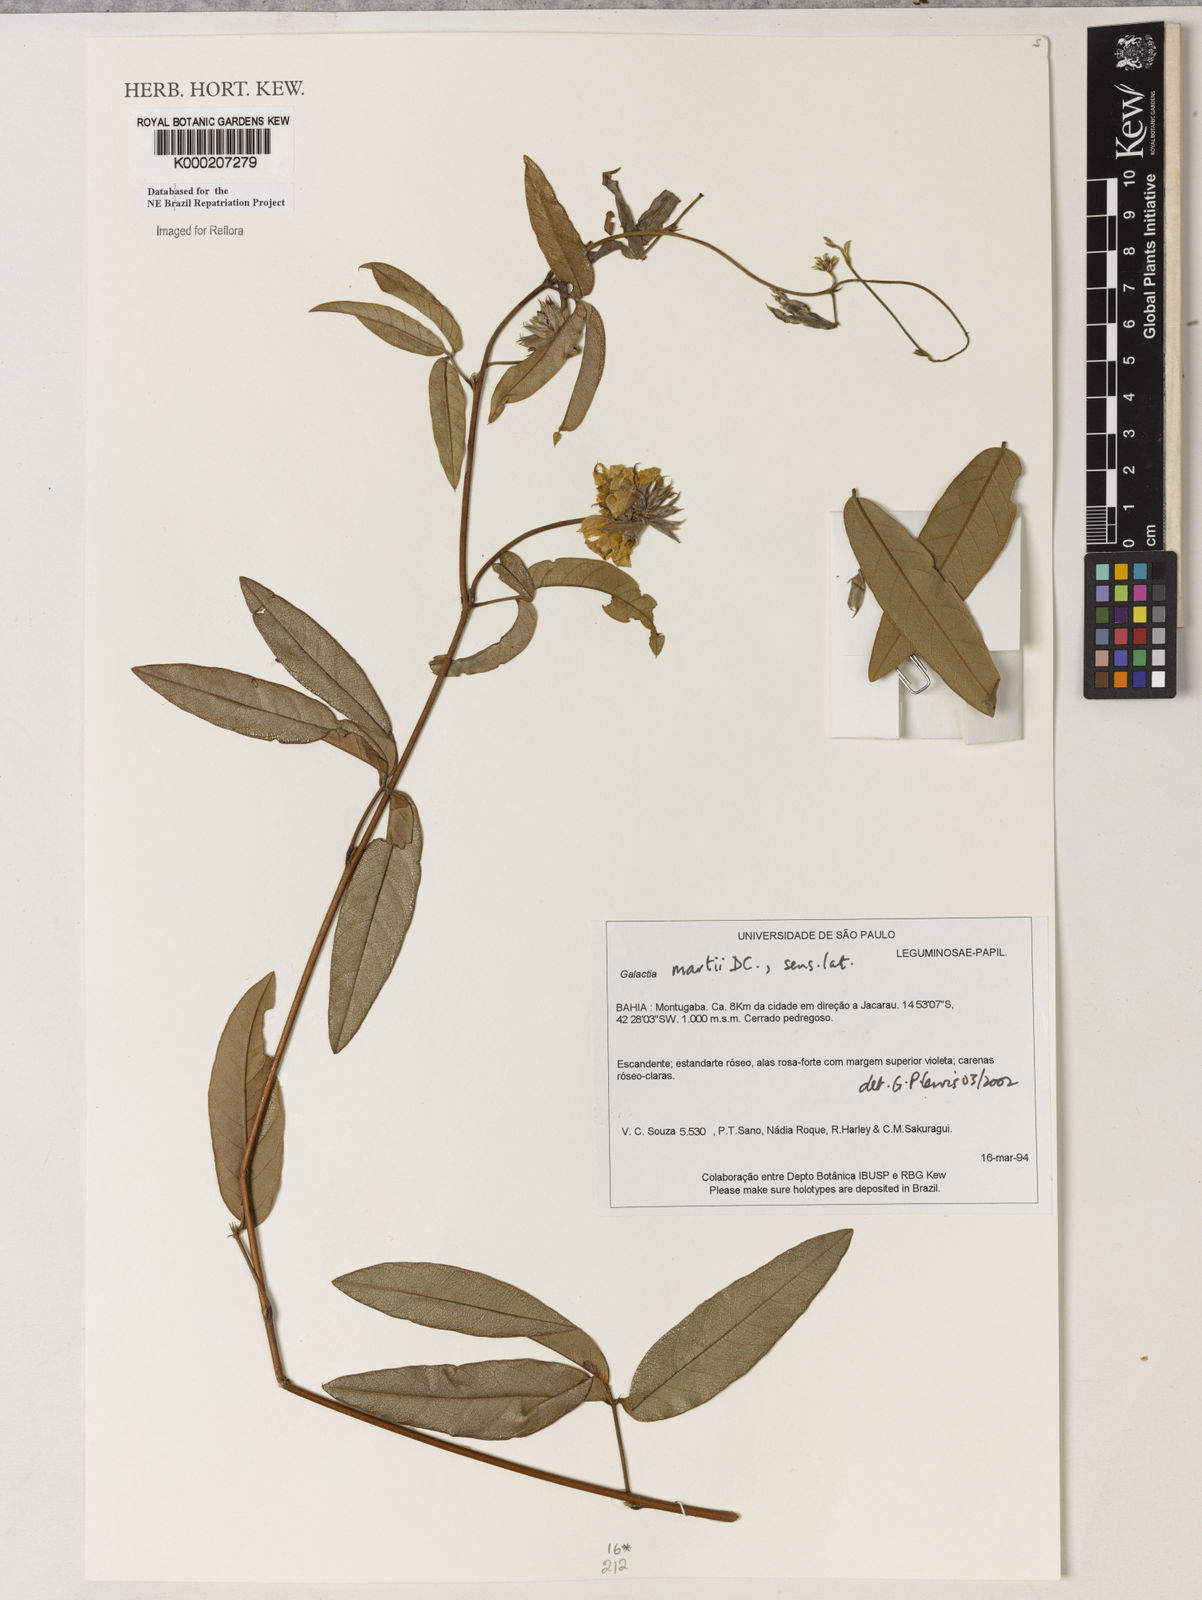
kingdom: Plantae
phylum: Tracheophyta
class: Magnoliopsida
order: Fabales
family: Fabaceae
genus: Betencourtia
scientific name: Betencourtia martii
